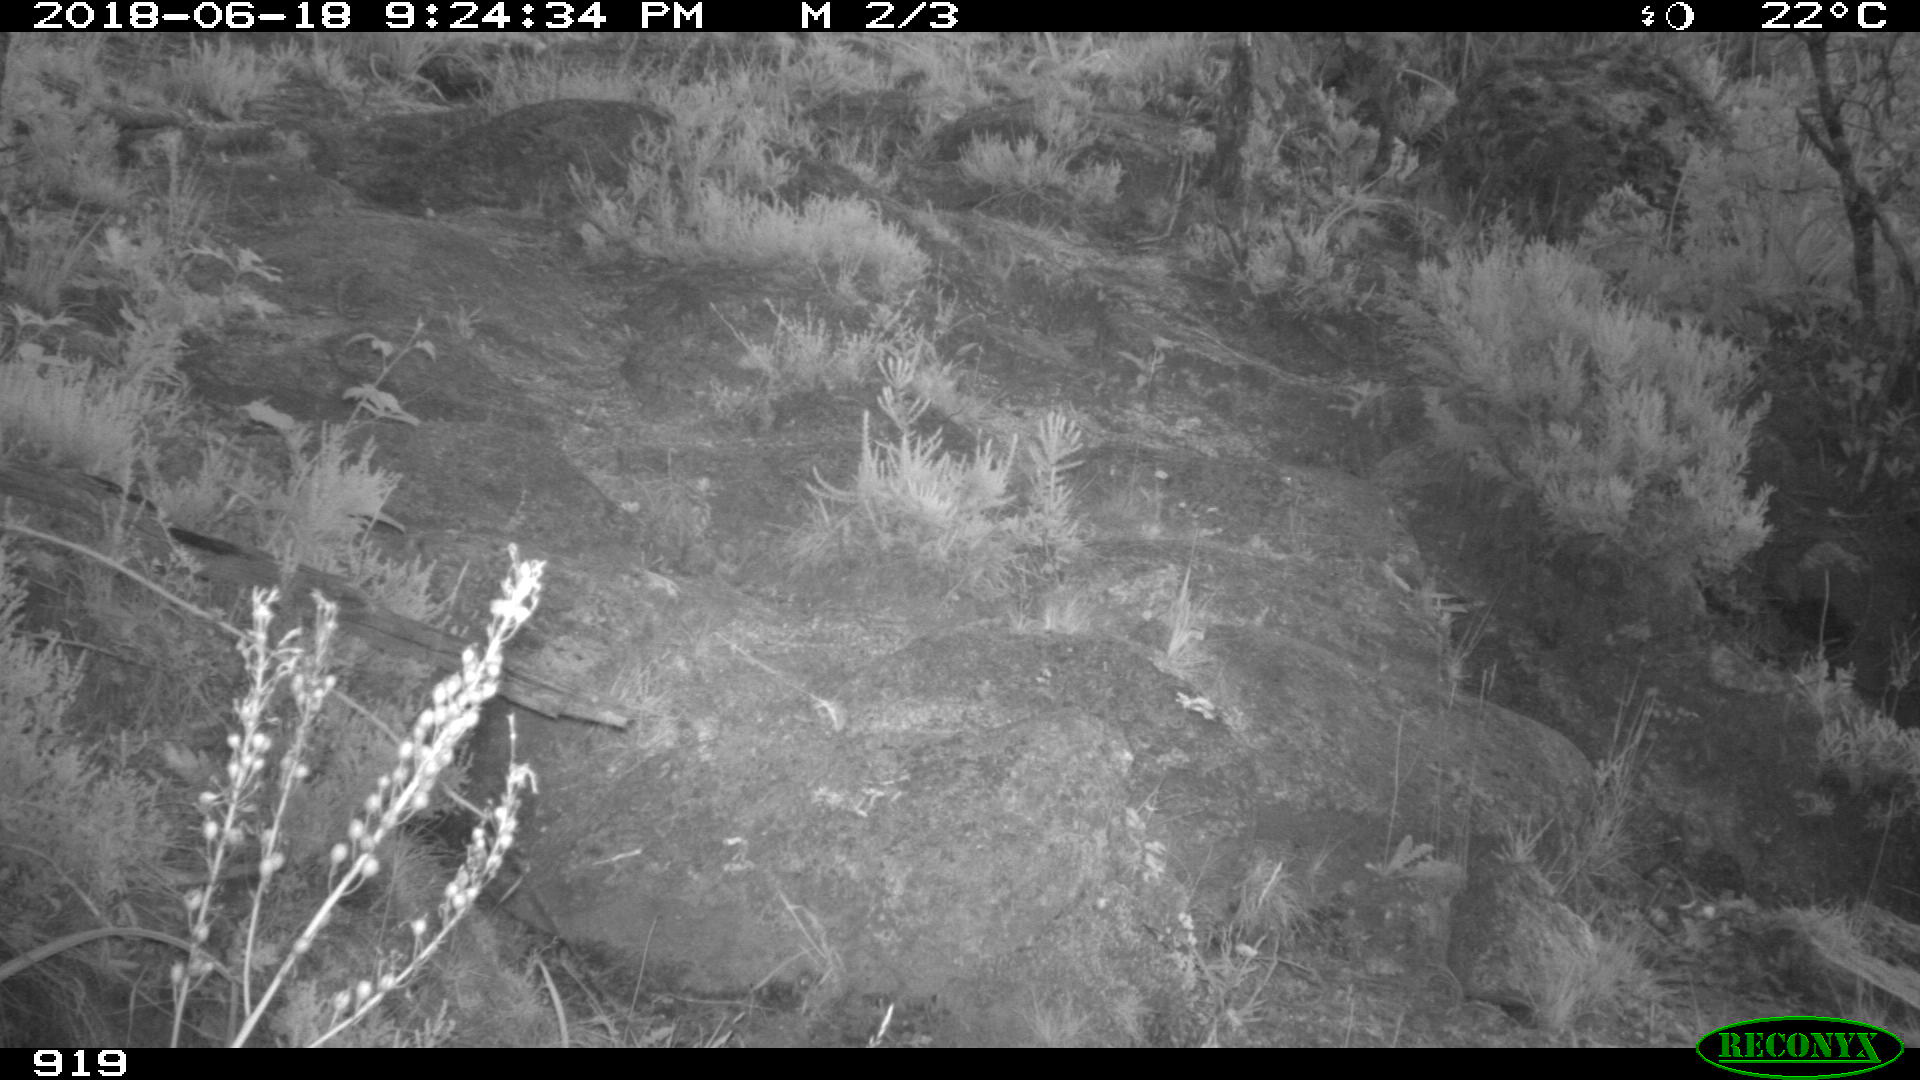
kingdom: Animalia
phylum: Chordata
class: Mammalia
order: Artiodactyla
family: Bovidae
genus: Bos
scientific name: Bos taurus
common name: Domesticated cattle
